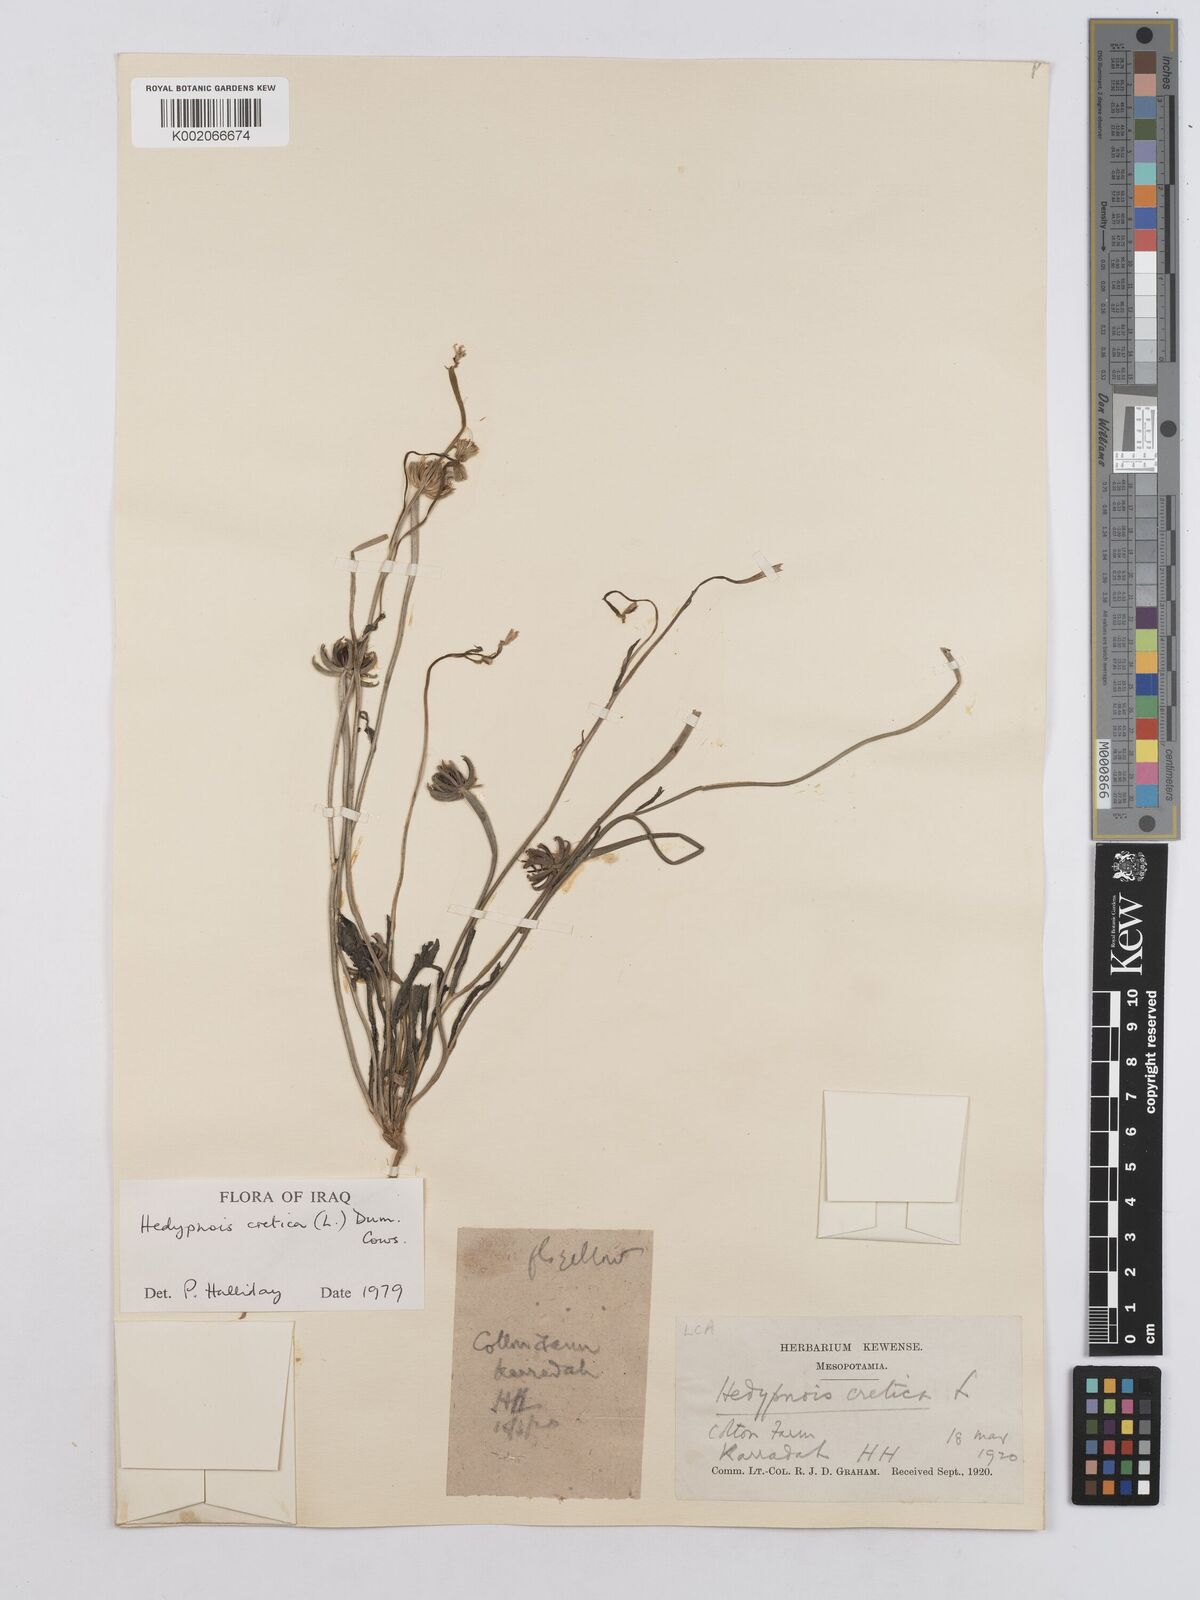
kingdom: Plantae
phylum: Tracheophyta
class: Magnoliopsida
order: Asterales
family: Asteraceae
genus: Hedypnois
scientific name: Hedypnois cretica
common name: Scaly hawkbit
